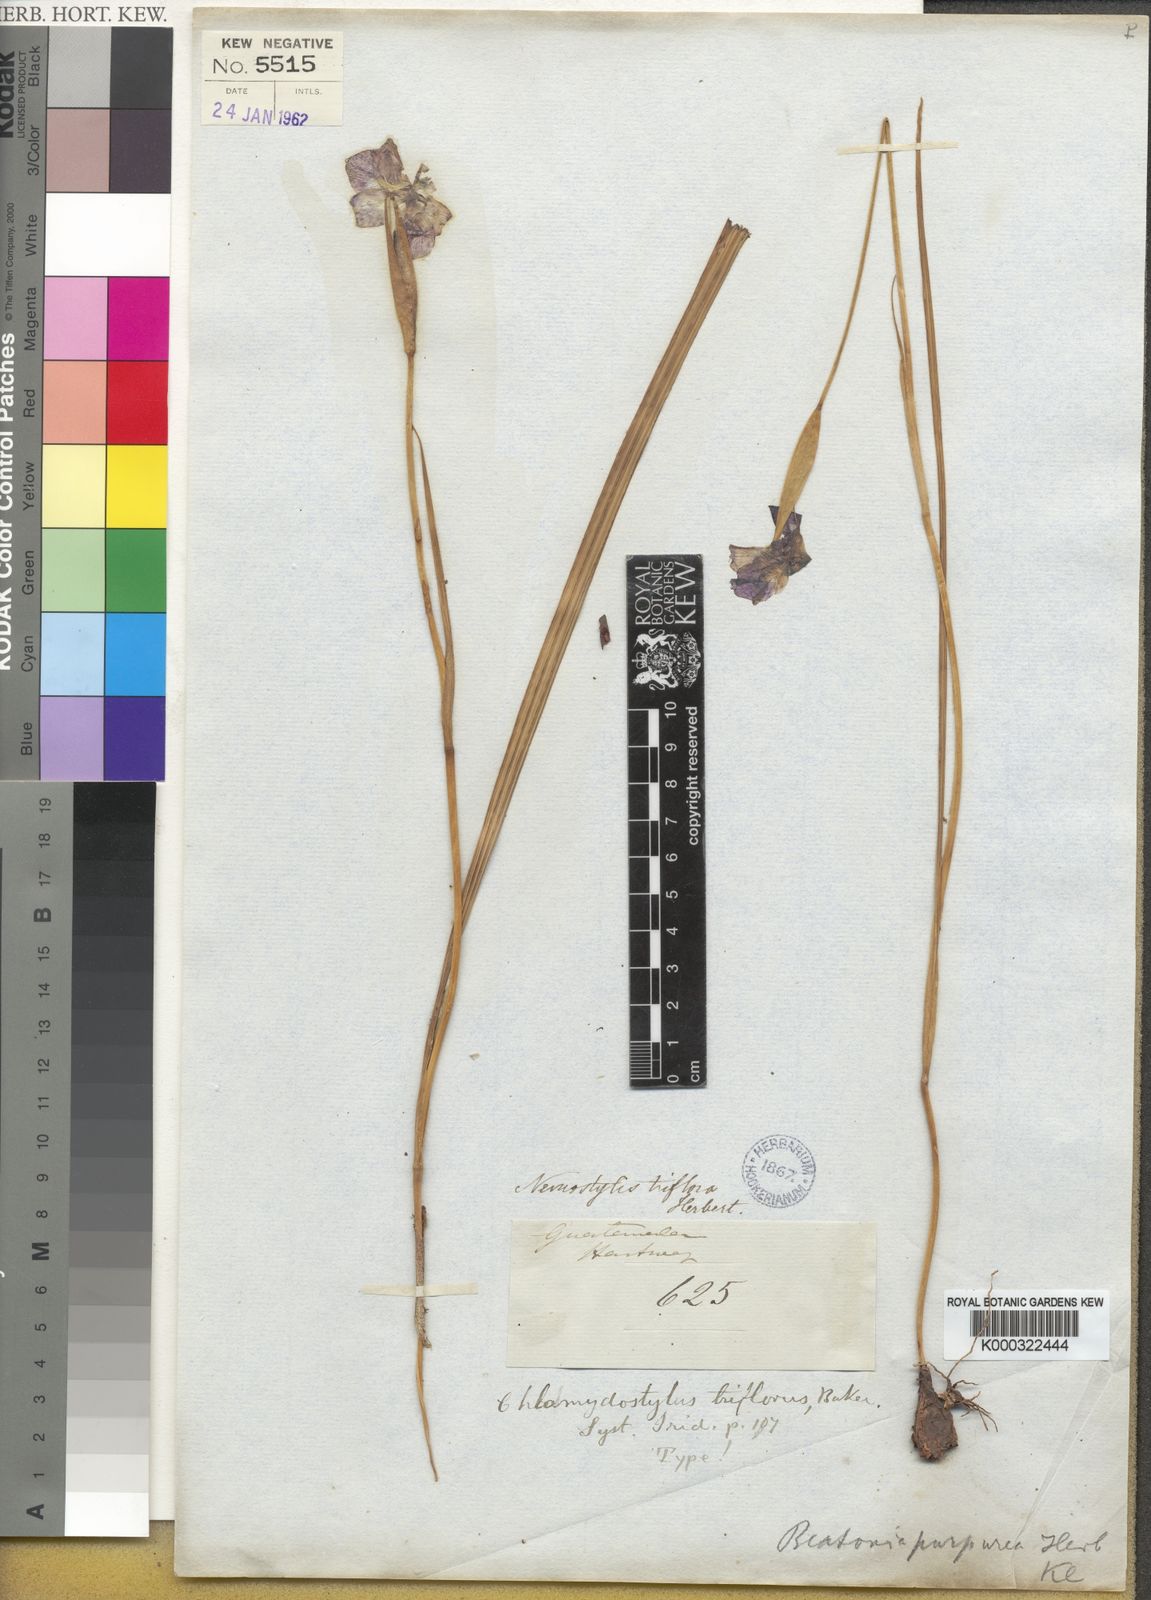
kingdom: Plantae
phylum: Tracheophyta
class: Liliopsida
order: Asparagales
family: Iridaceae
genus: Tigridia
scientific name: Tigridia meleagris
